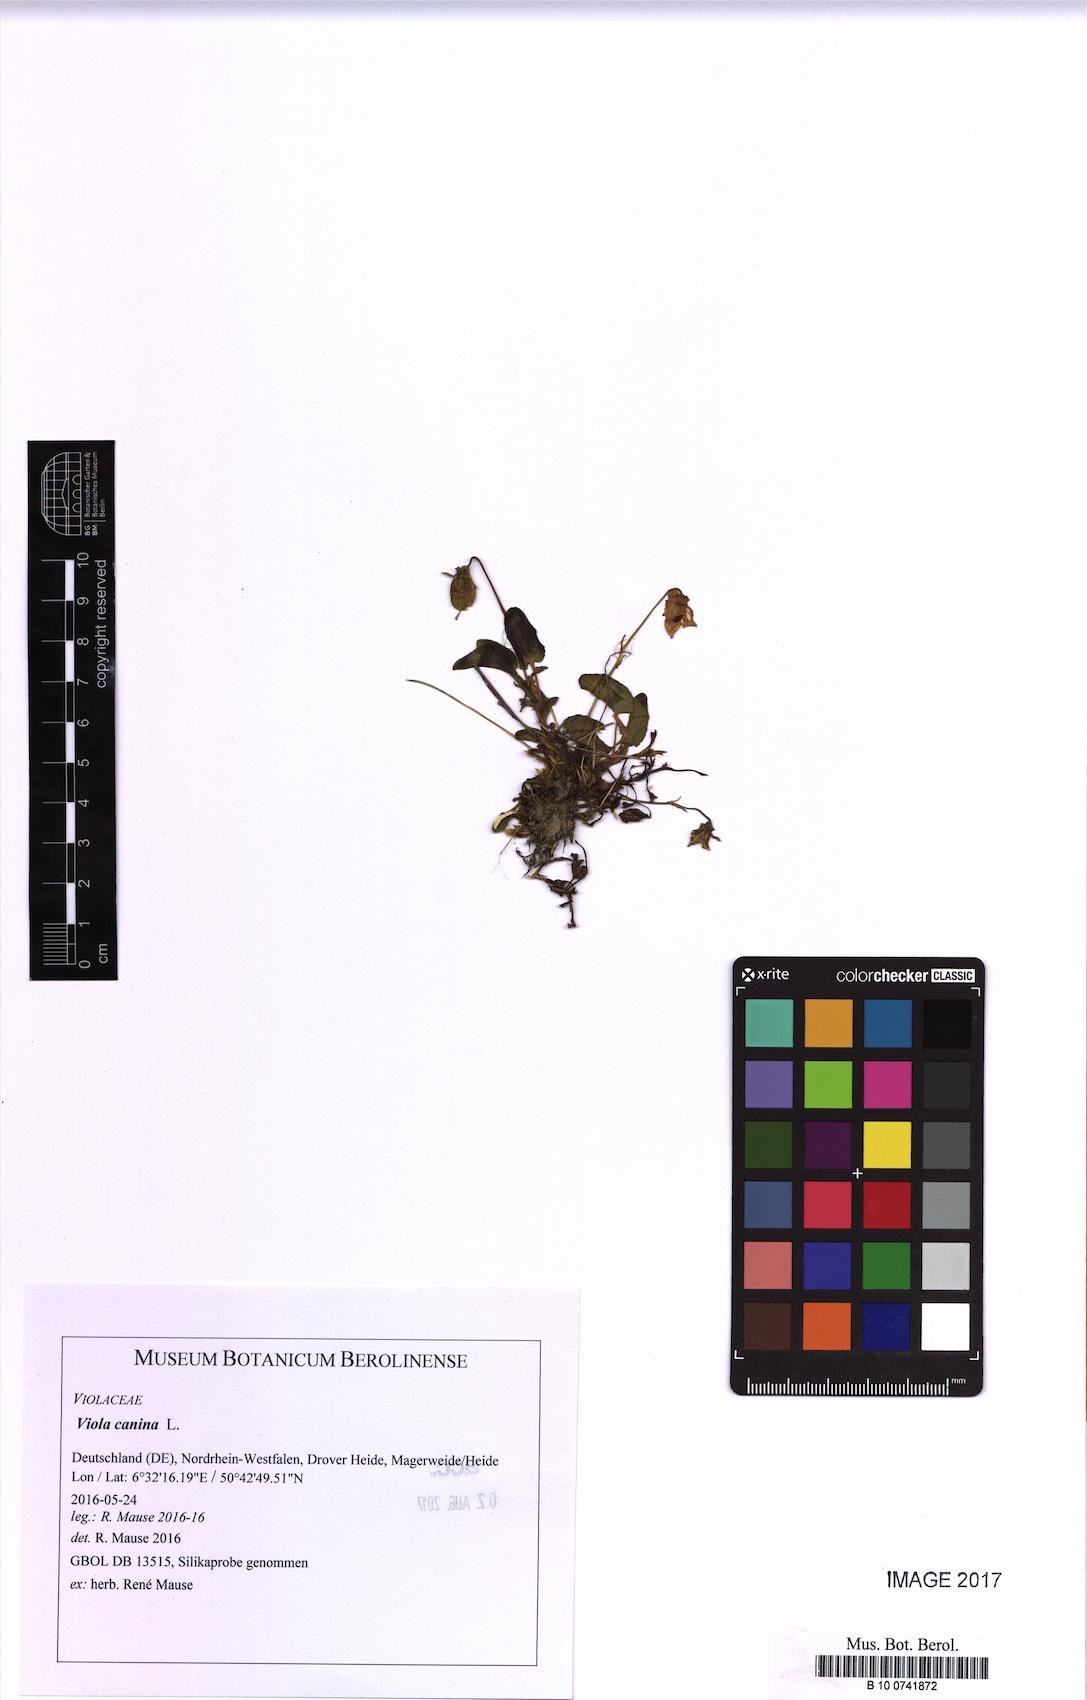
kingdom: Plantae
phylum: Tracheophyta
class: Magnoliopsida
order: Malpighiales
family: Violaceae
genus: Viola
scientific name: Viola canina
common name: Heath dog-violet
